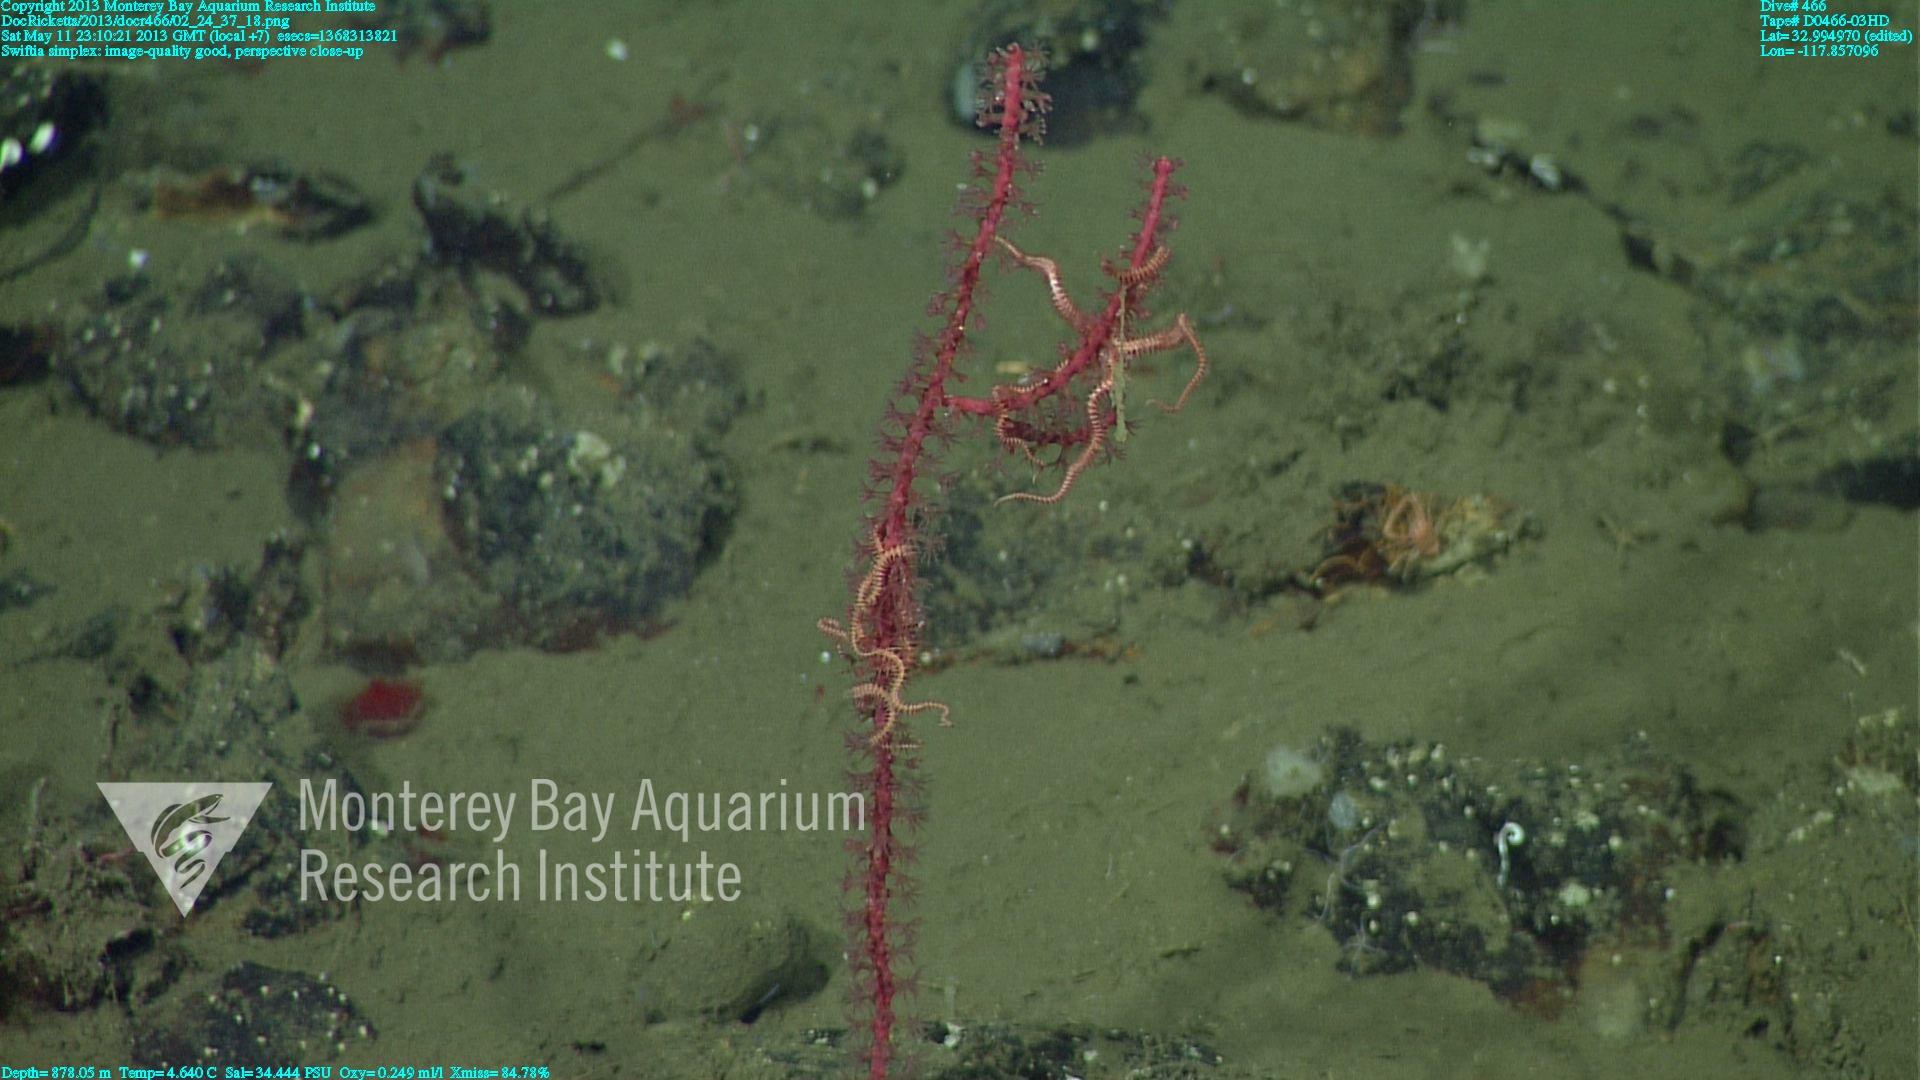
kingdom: Animalia
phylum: Cnidaria
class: Anthozoa
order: Malacalcyonacea
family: Gorgoniidae
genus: Callistephanus
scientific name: Callistephanus simplex
